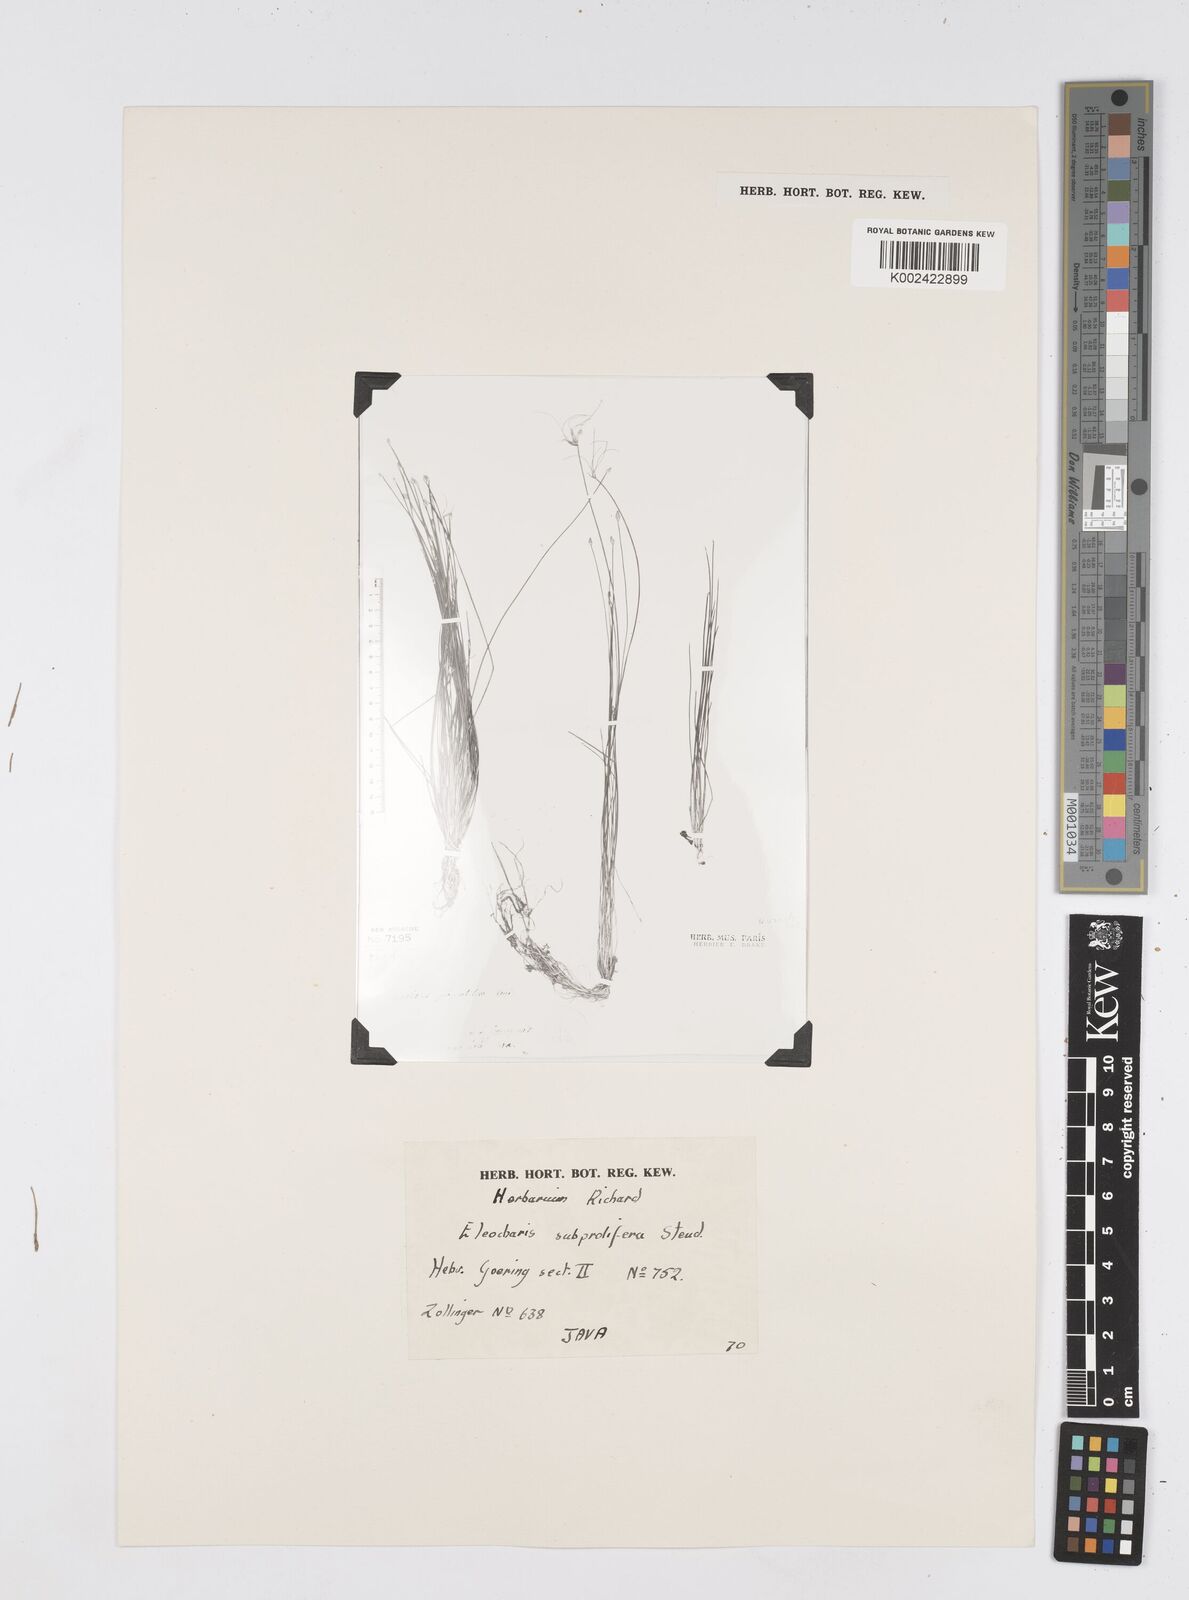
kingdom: Plantae
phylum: Tracheophyta
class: Liliopsida
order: Poales
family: Cyperaceae
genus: Eleocharis
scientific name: Eleocharis congesta
